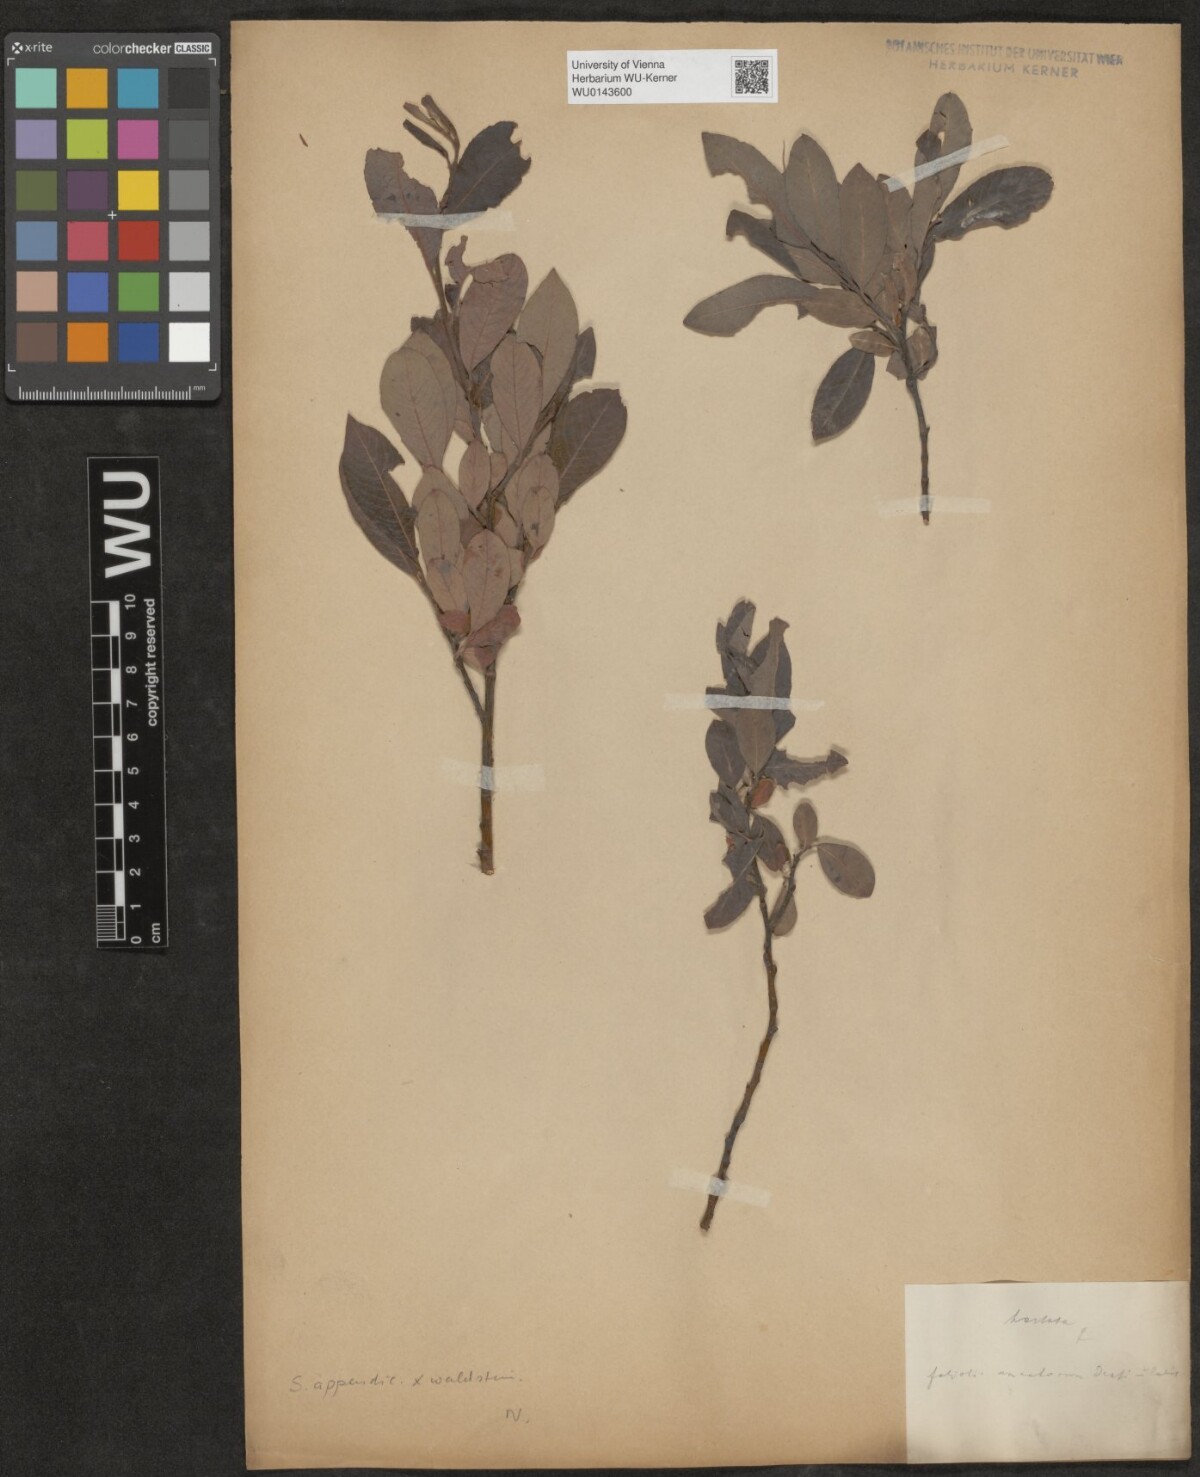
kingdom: Plantae
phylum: Tracheophyta
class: Magnoliopsida
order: Malpighiales
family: Salicaceae
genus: Salix
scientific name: Salix waldsteiniana
